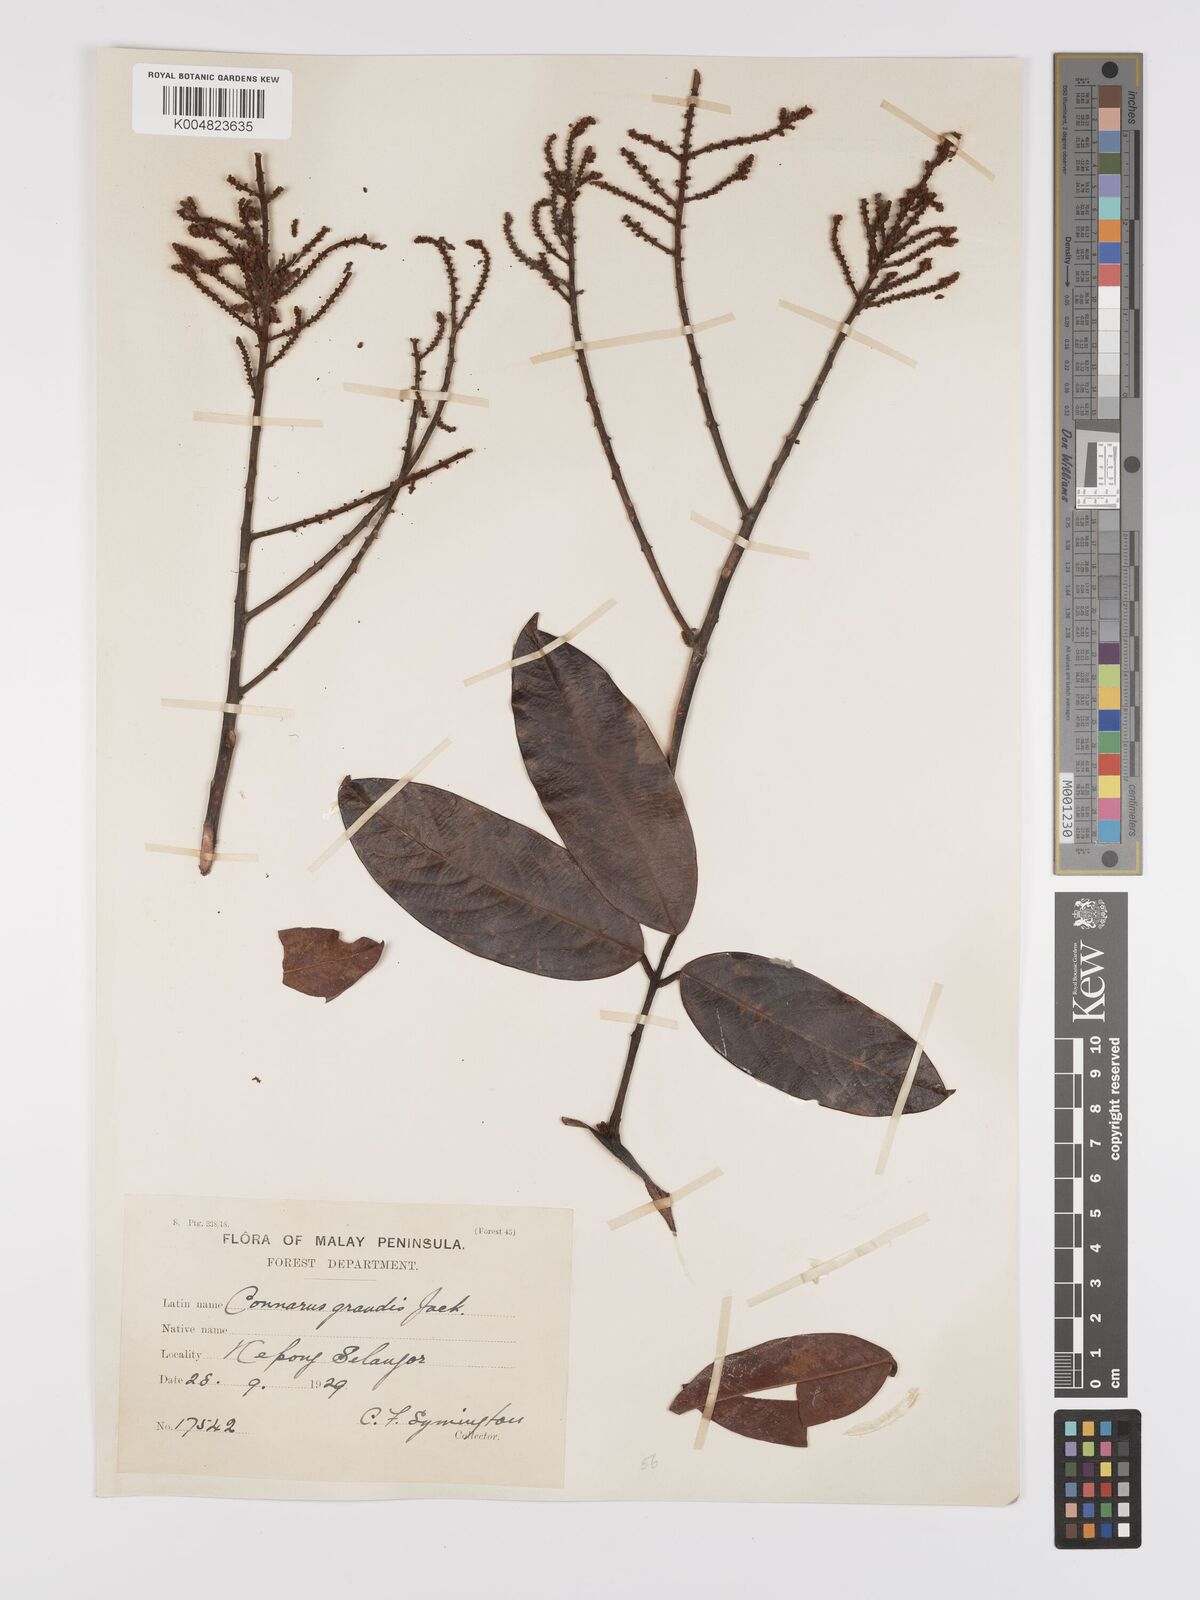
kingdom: Plantae
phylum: Tracheophyta
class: Magnoliopsida
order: Oxalidales
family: Connaraceae
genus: Connarus
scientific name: Connarus grandis
